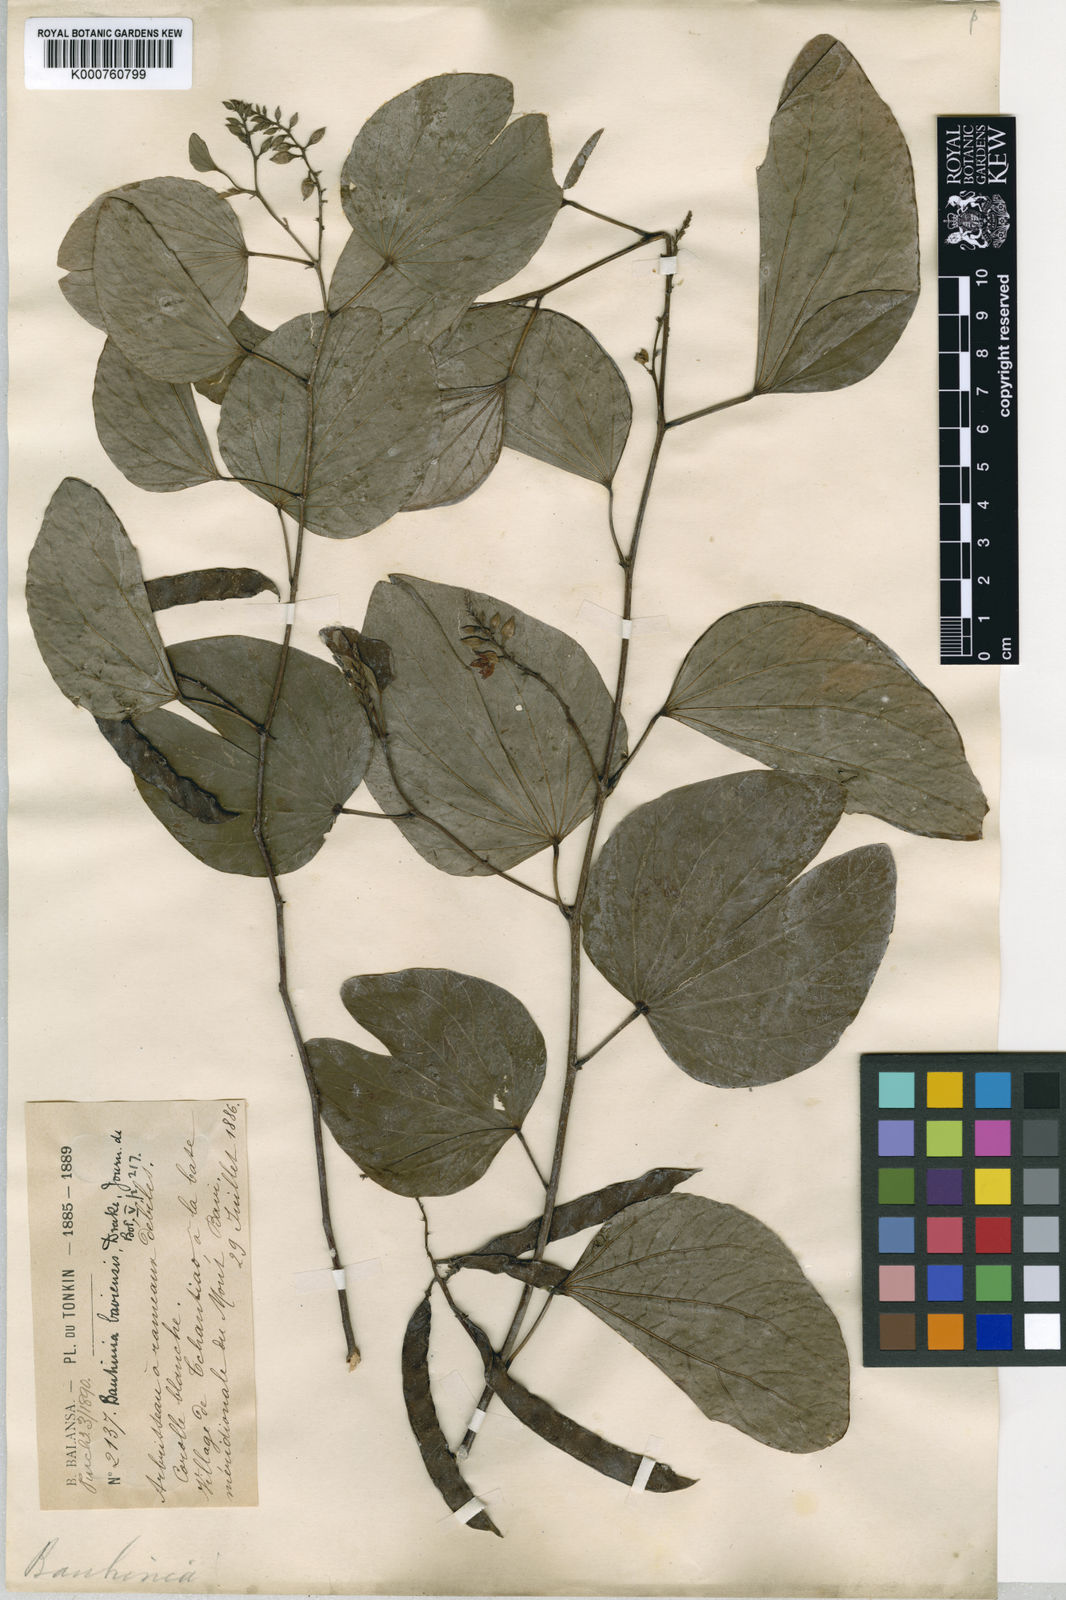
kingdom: Plantae
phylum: Tracheophyta
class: Magnoliopsida
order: Fabales
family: Fabaceae
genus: Bauhinia
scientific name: Bauhinia viridescens
